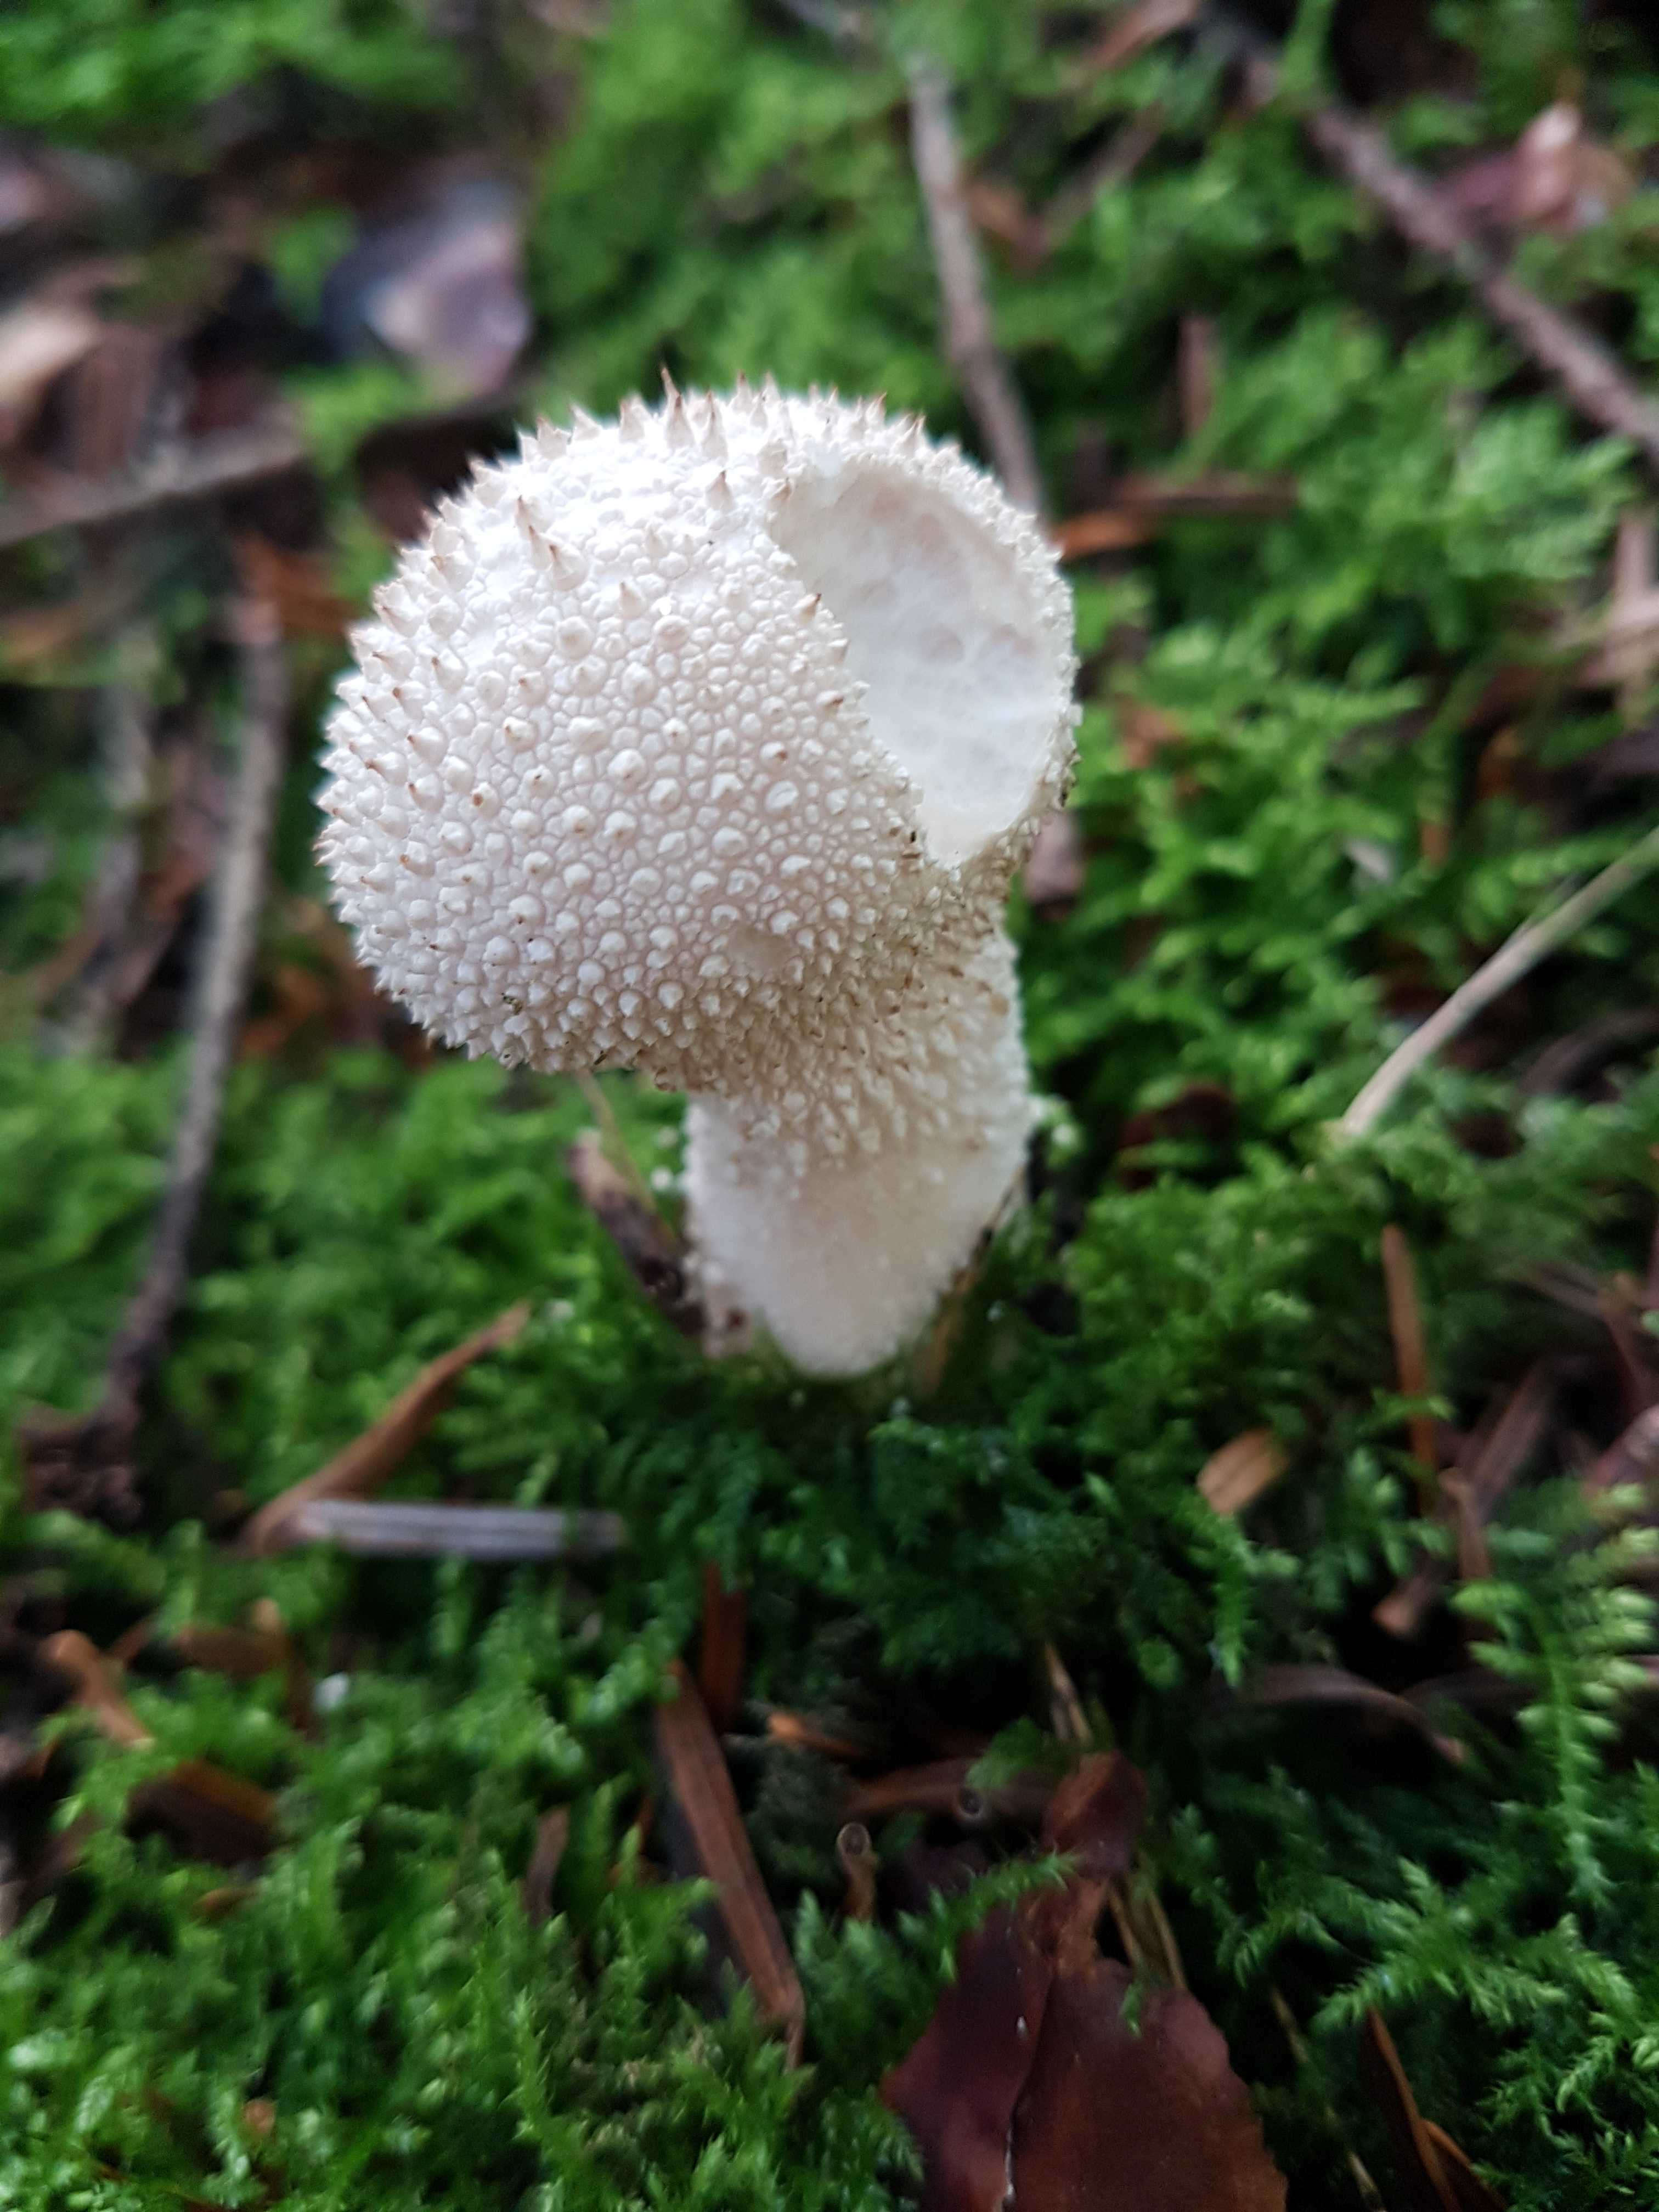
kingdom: Fungi
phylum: Basidiomycota
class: Agaricomycetes
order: Agaricales
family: Lycoperdaceae
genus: Lycoperdon
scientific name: Lycoperdon perlatum
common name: krystal-støvbold
